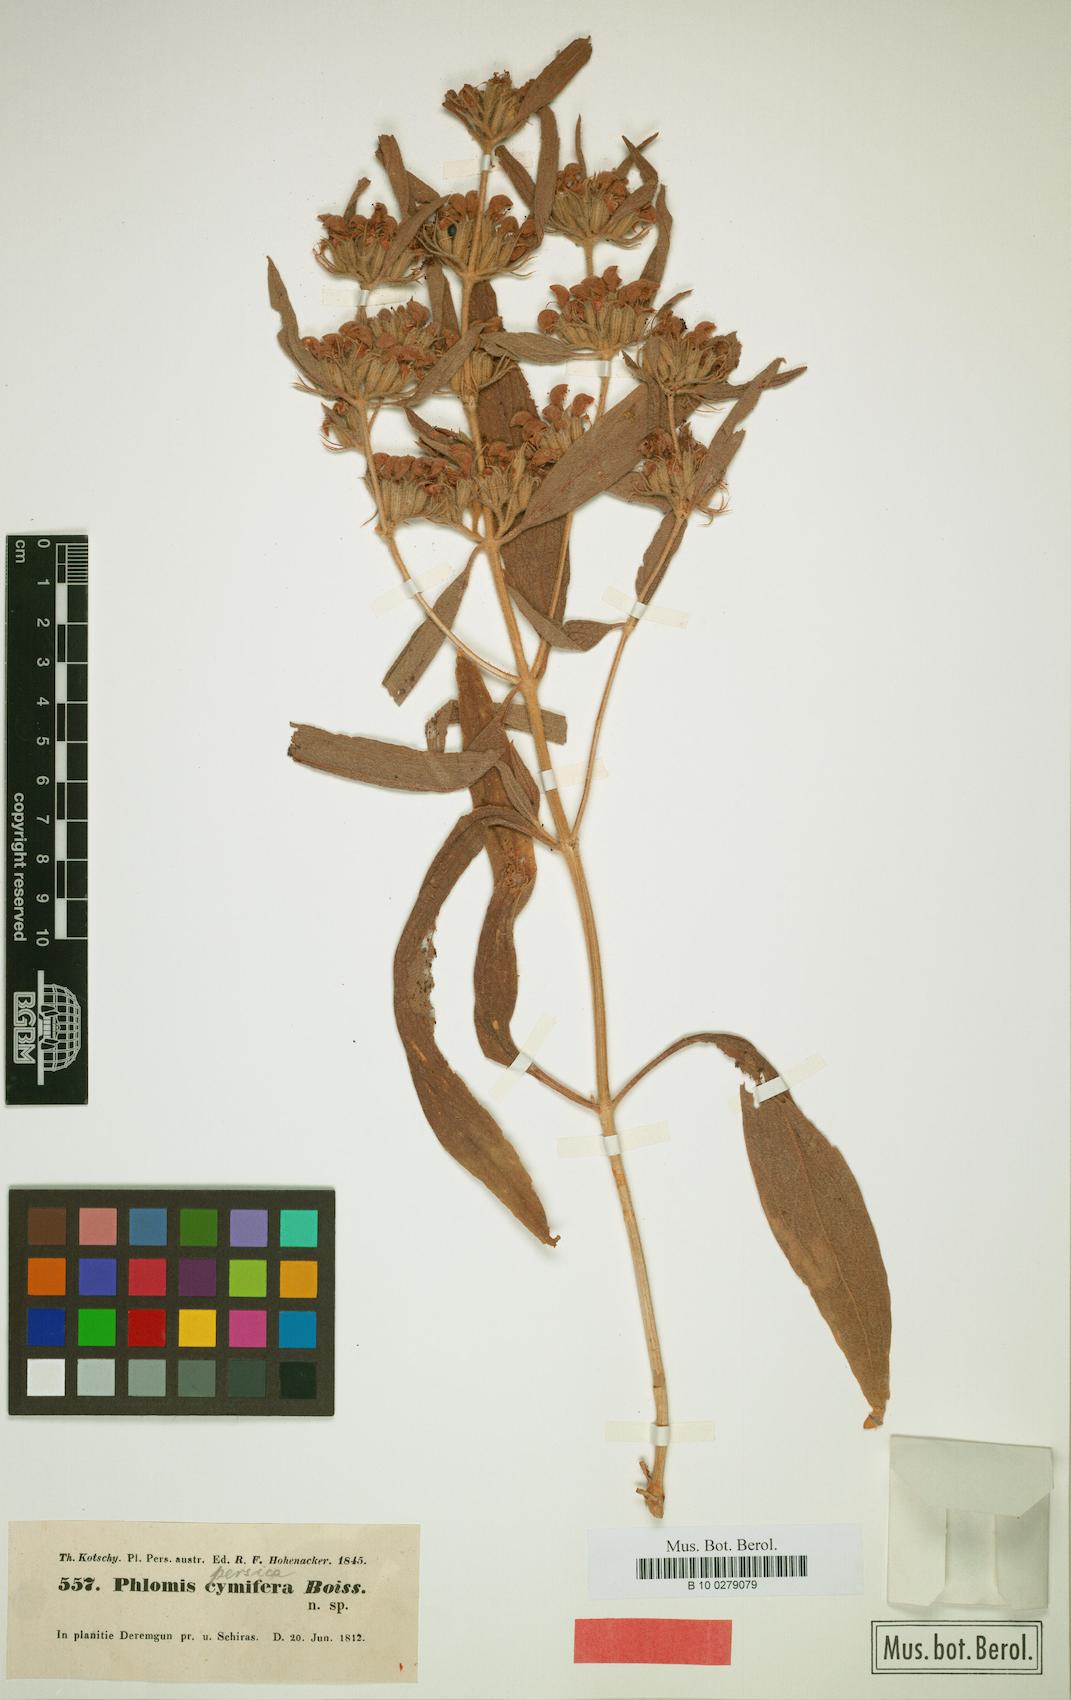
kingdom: Plantae
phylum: Tracheophyta
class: Magnoliopsida
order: Lamiales
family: Lamiaceae
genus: Phlomis
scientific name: Phlomis persica
